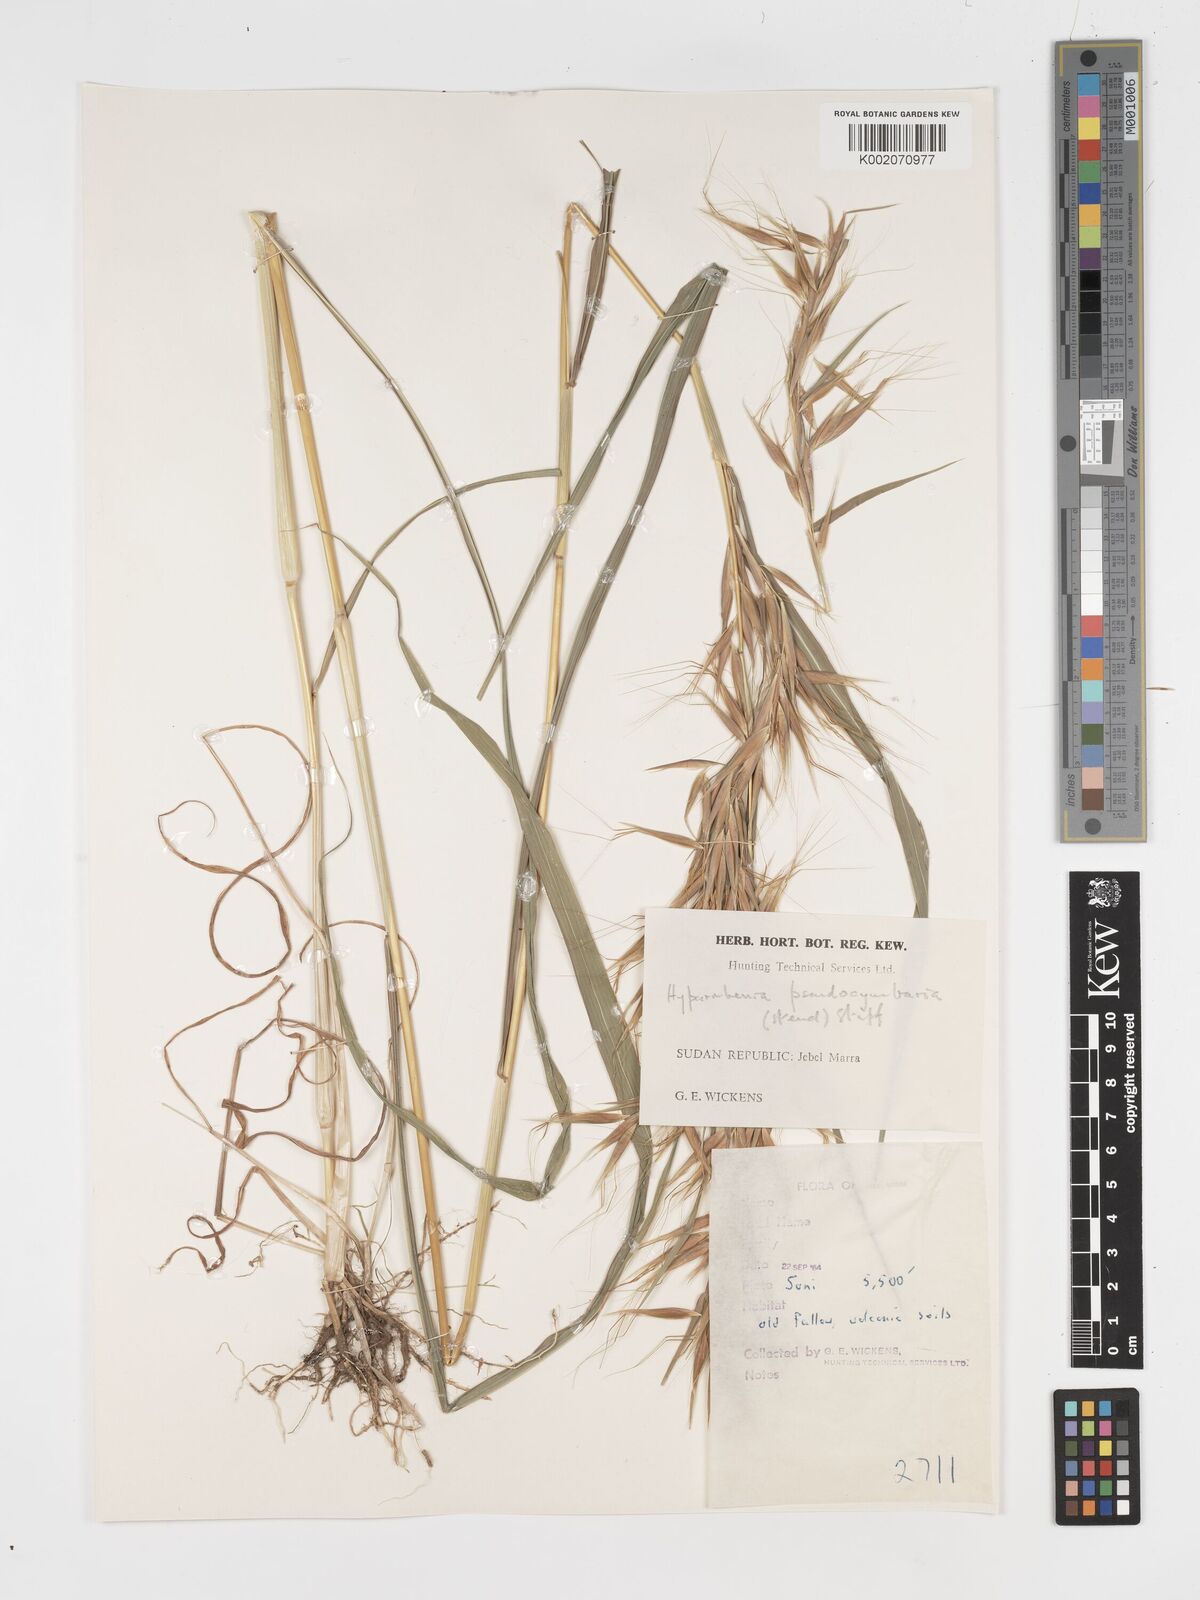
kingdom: Plantae
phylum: Tracheophyta
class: Liliopsida
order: Poales
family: Poaceae
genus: Hyparrhenia
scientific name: Hyparrhenia anthistirioides
